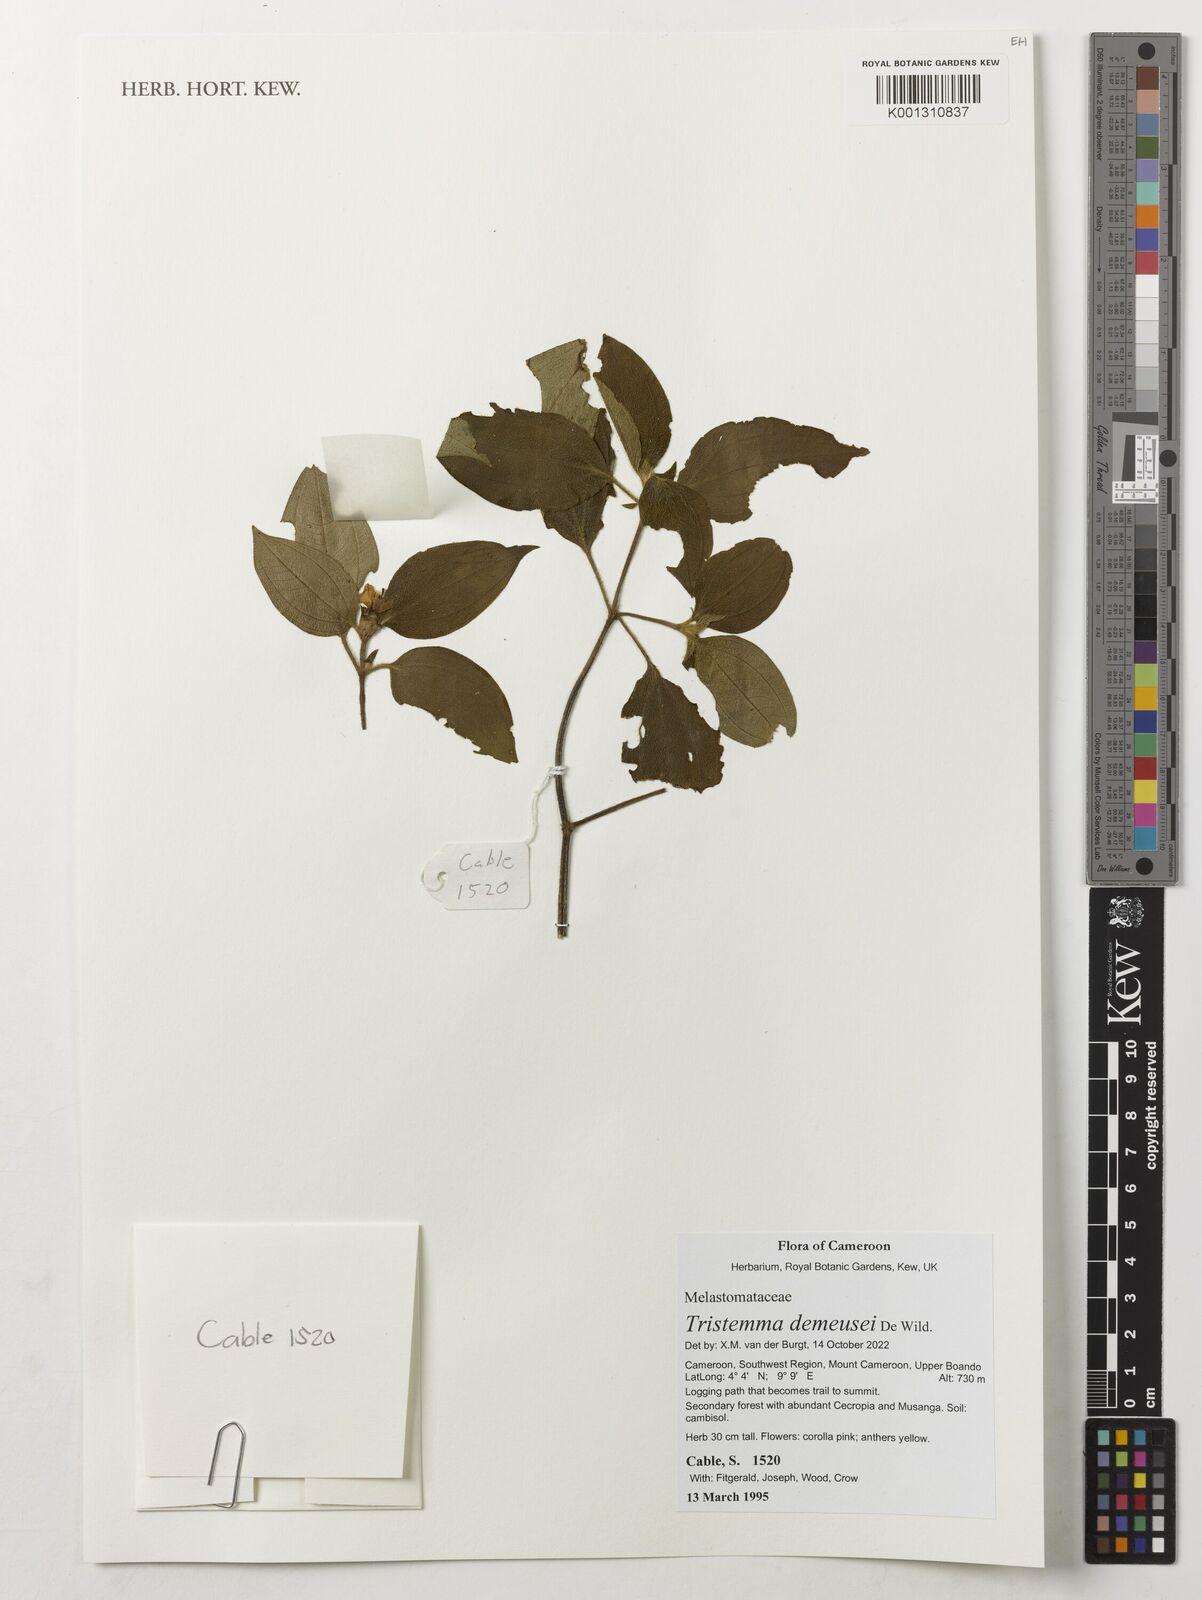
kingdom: Plantae
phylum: Tracheophyta
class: Magnoliopsida
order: Myrtales
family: Melastomataceae
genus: Tristemma
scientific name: Tristemma demeusei
